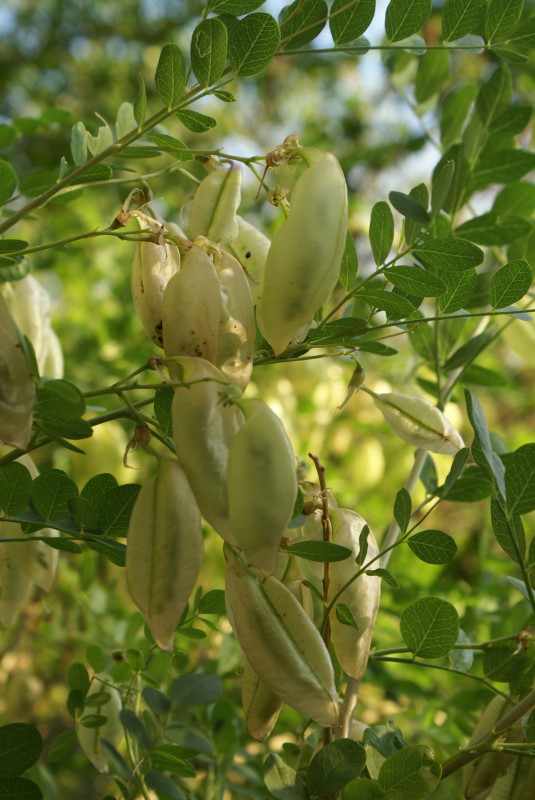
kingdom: Plantae
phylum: Tracheophyta
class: Magnoliopsida
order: Fabales
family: Fabaceae
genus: Colutea
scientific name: Colutea cilicica
